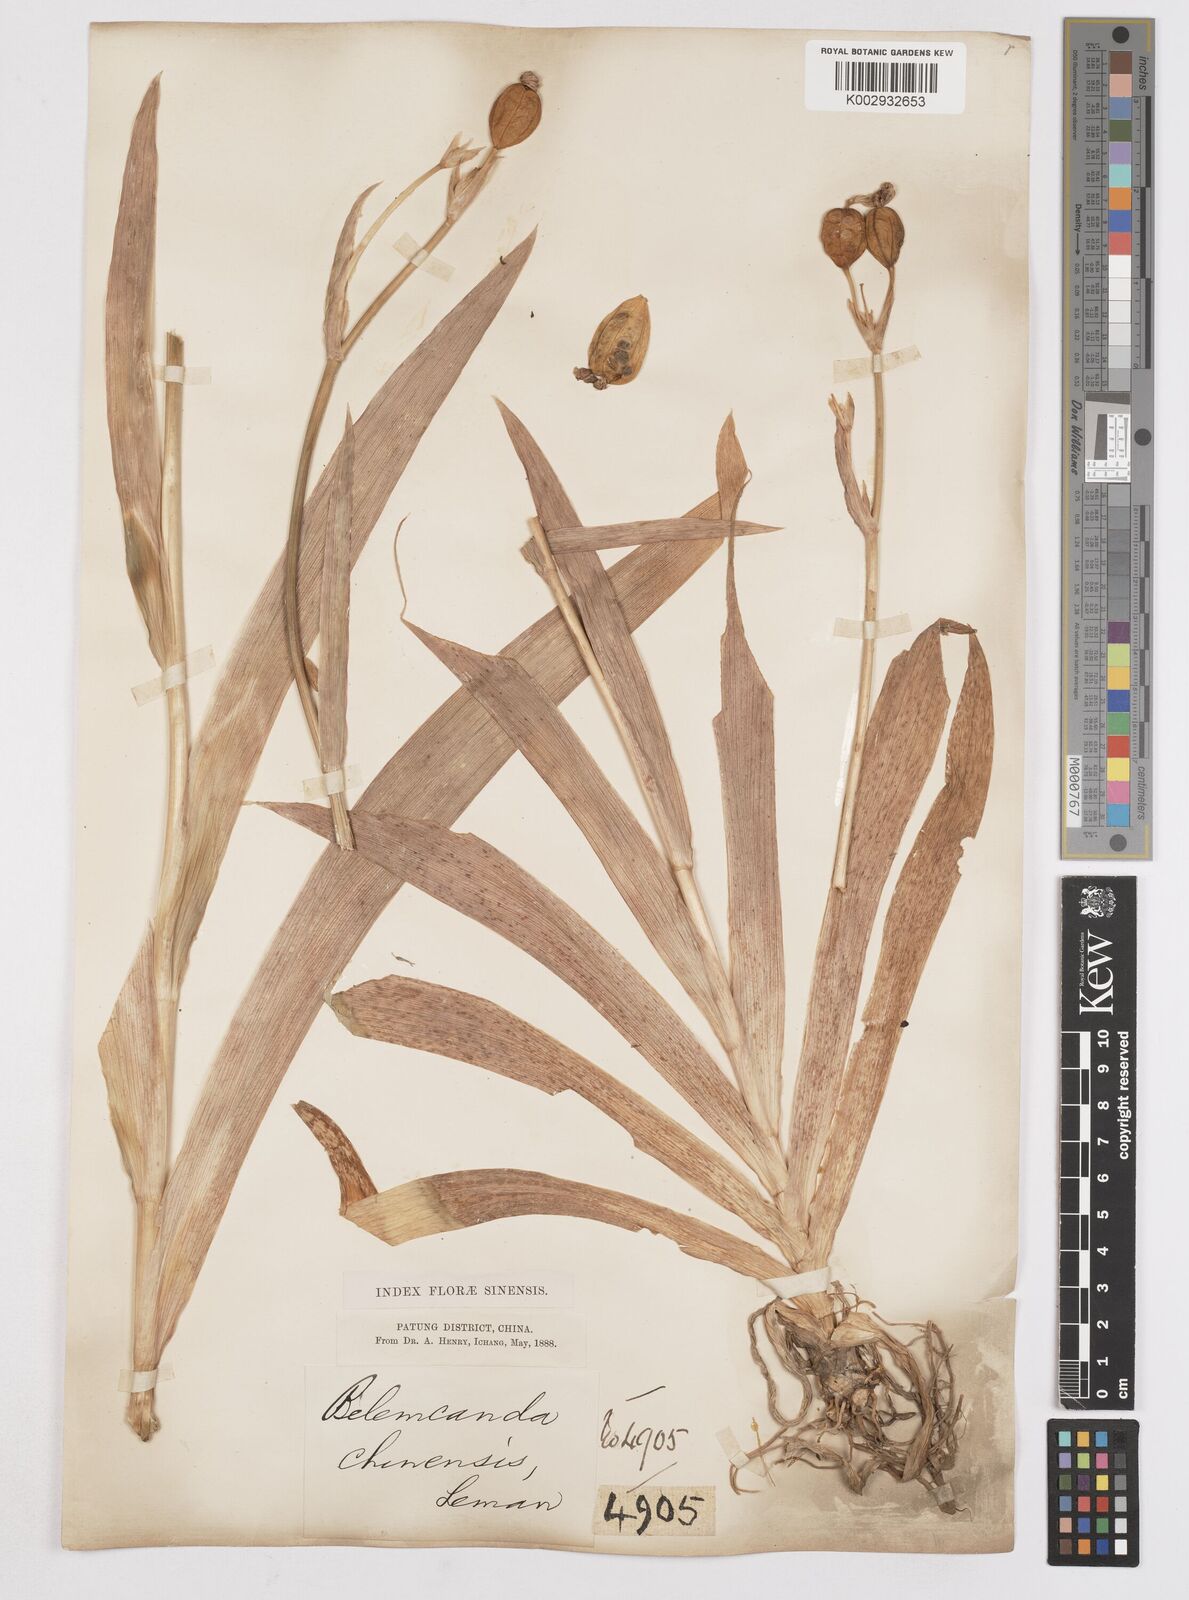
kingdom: Plantae
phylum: Tracheophyta
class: Liliopsida
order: Asparagales
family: Iridaceae
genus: Iris
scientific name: Iris
